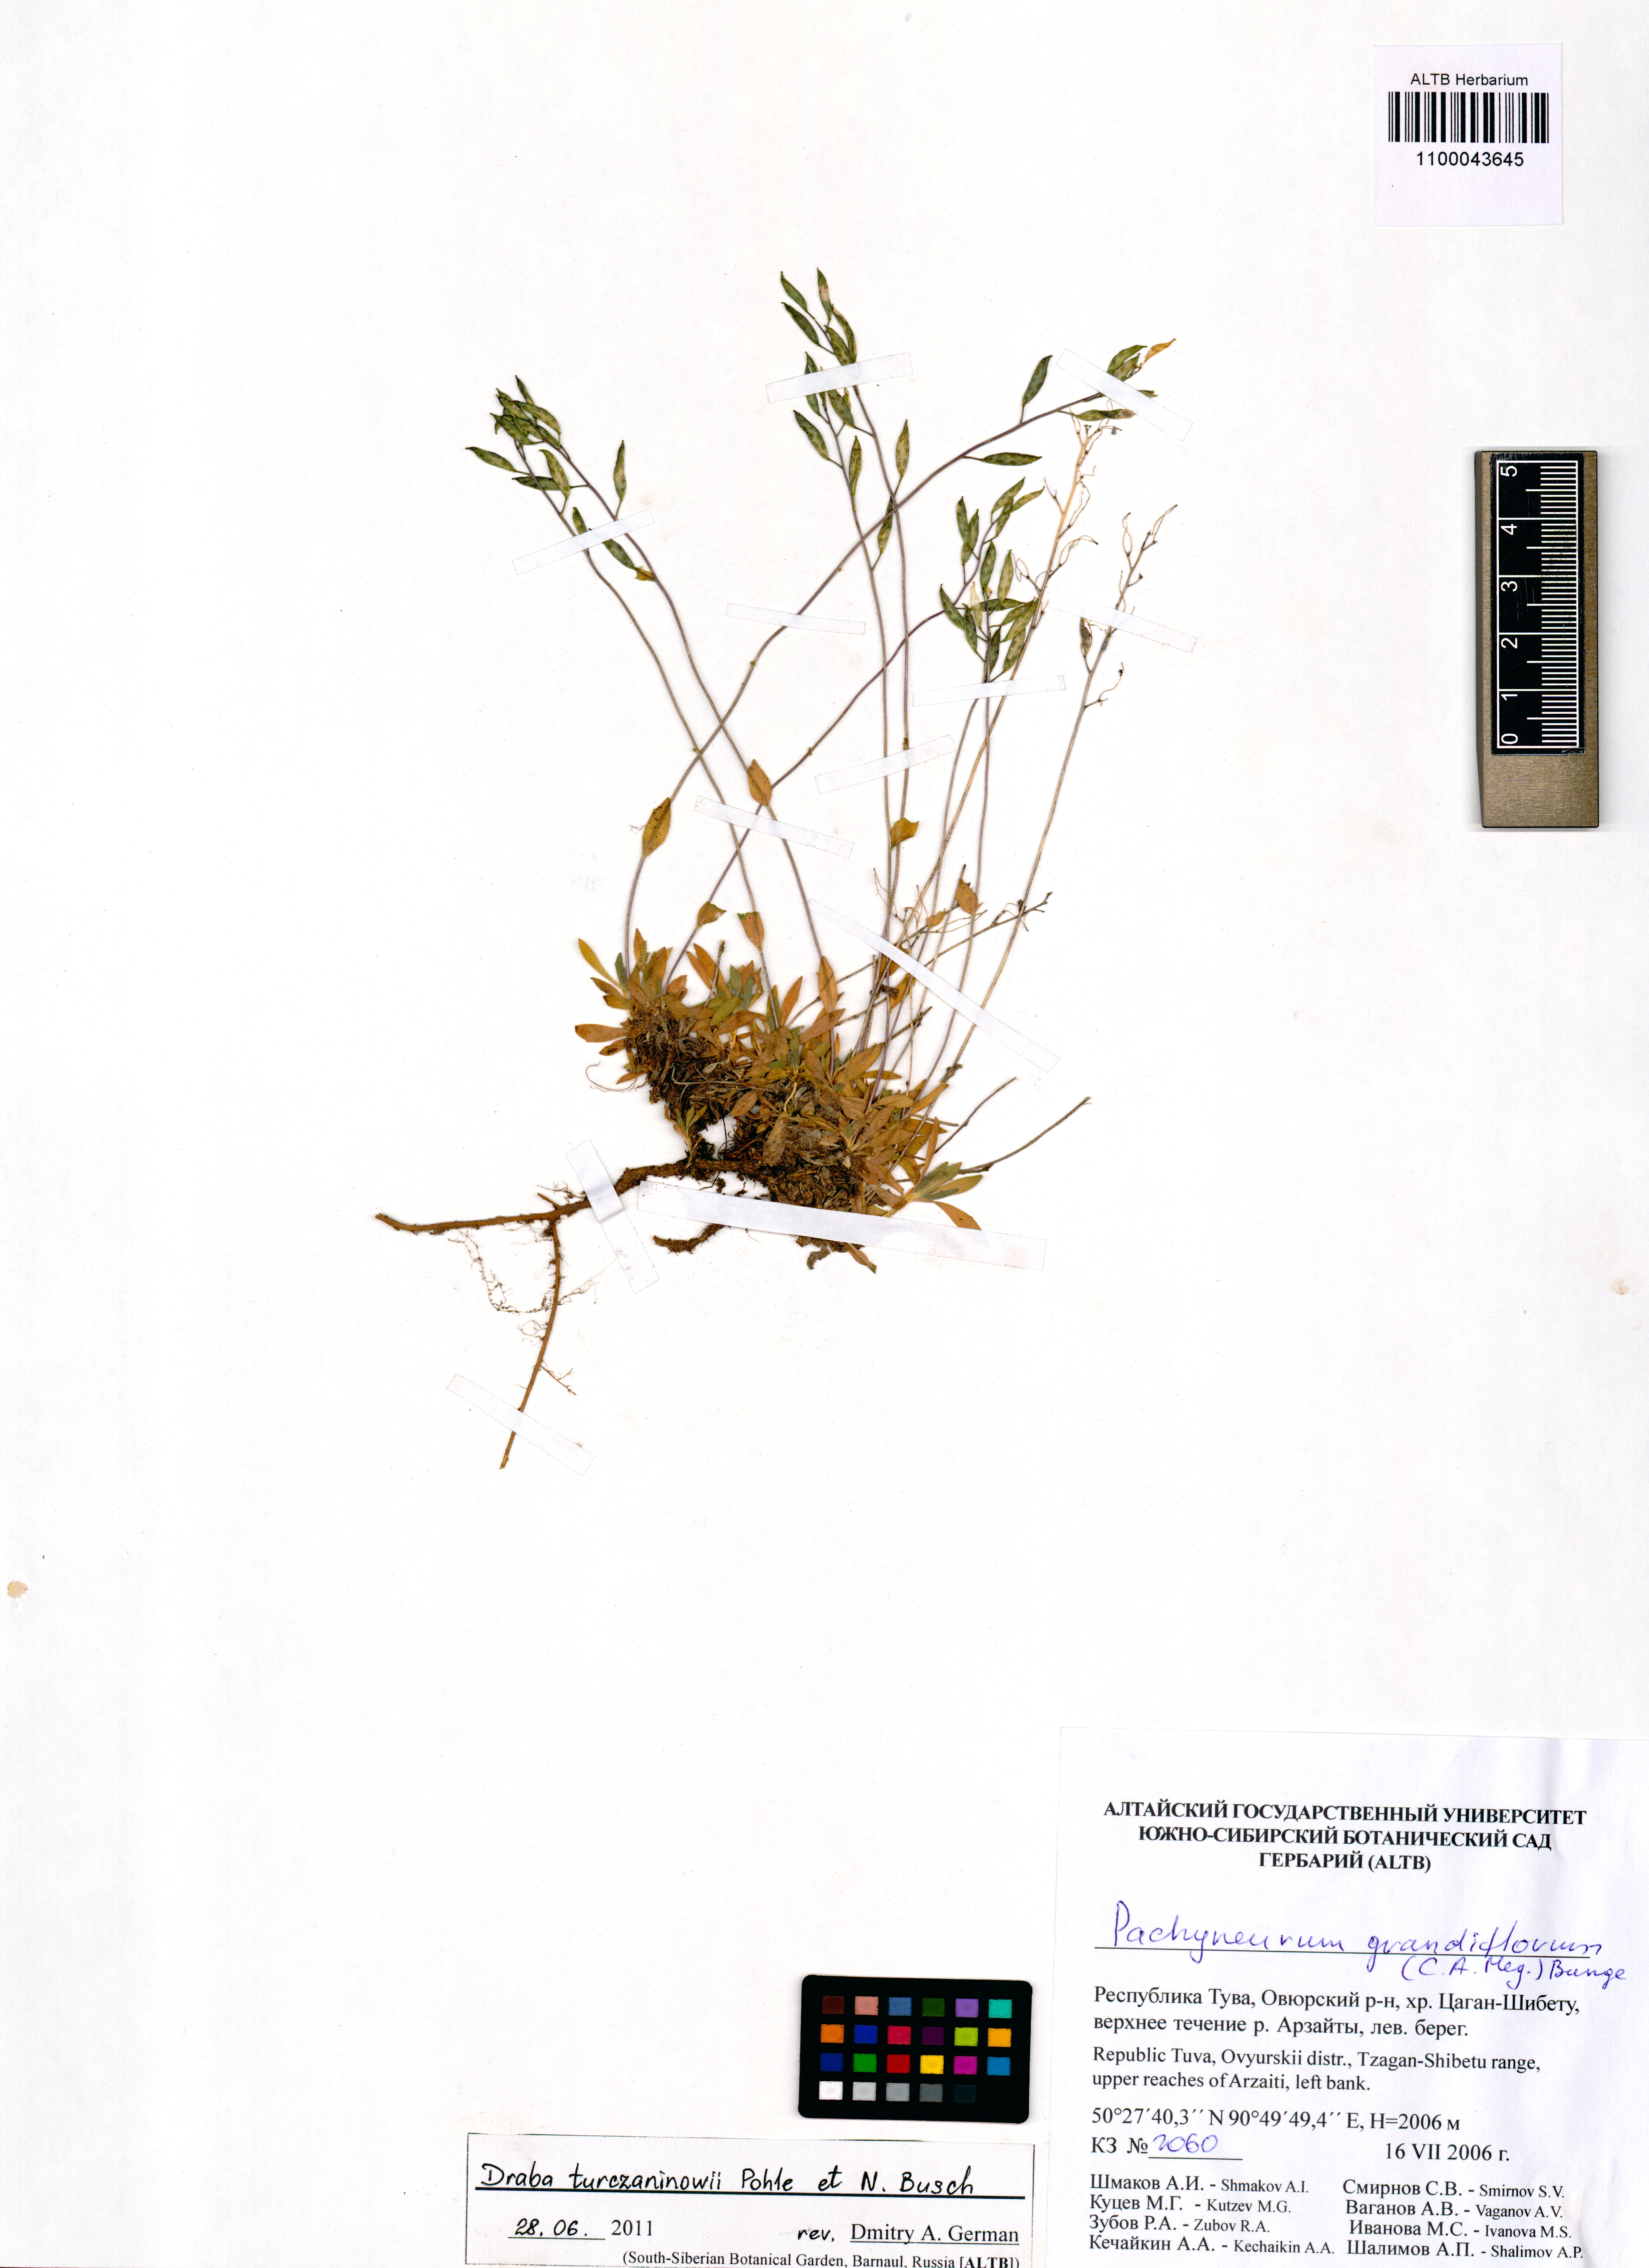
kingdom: Plantae
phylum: Tracheophyta
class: Magnoliopsida
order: Brassicales
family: Brassicaceae
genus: Draba
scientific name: Draba turczaninovii
